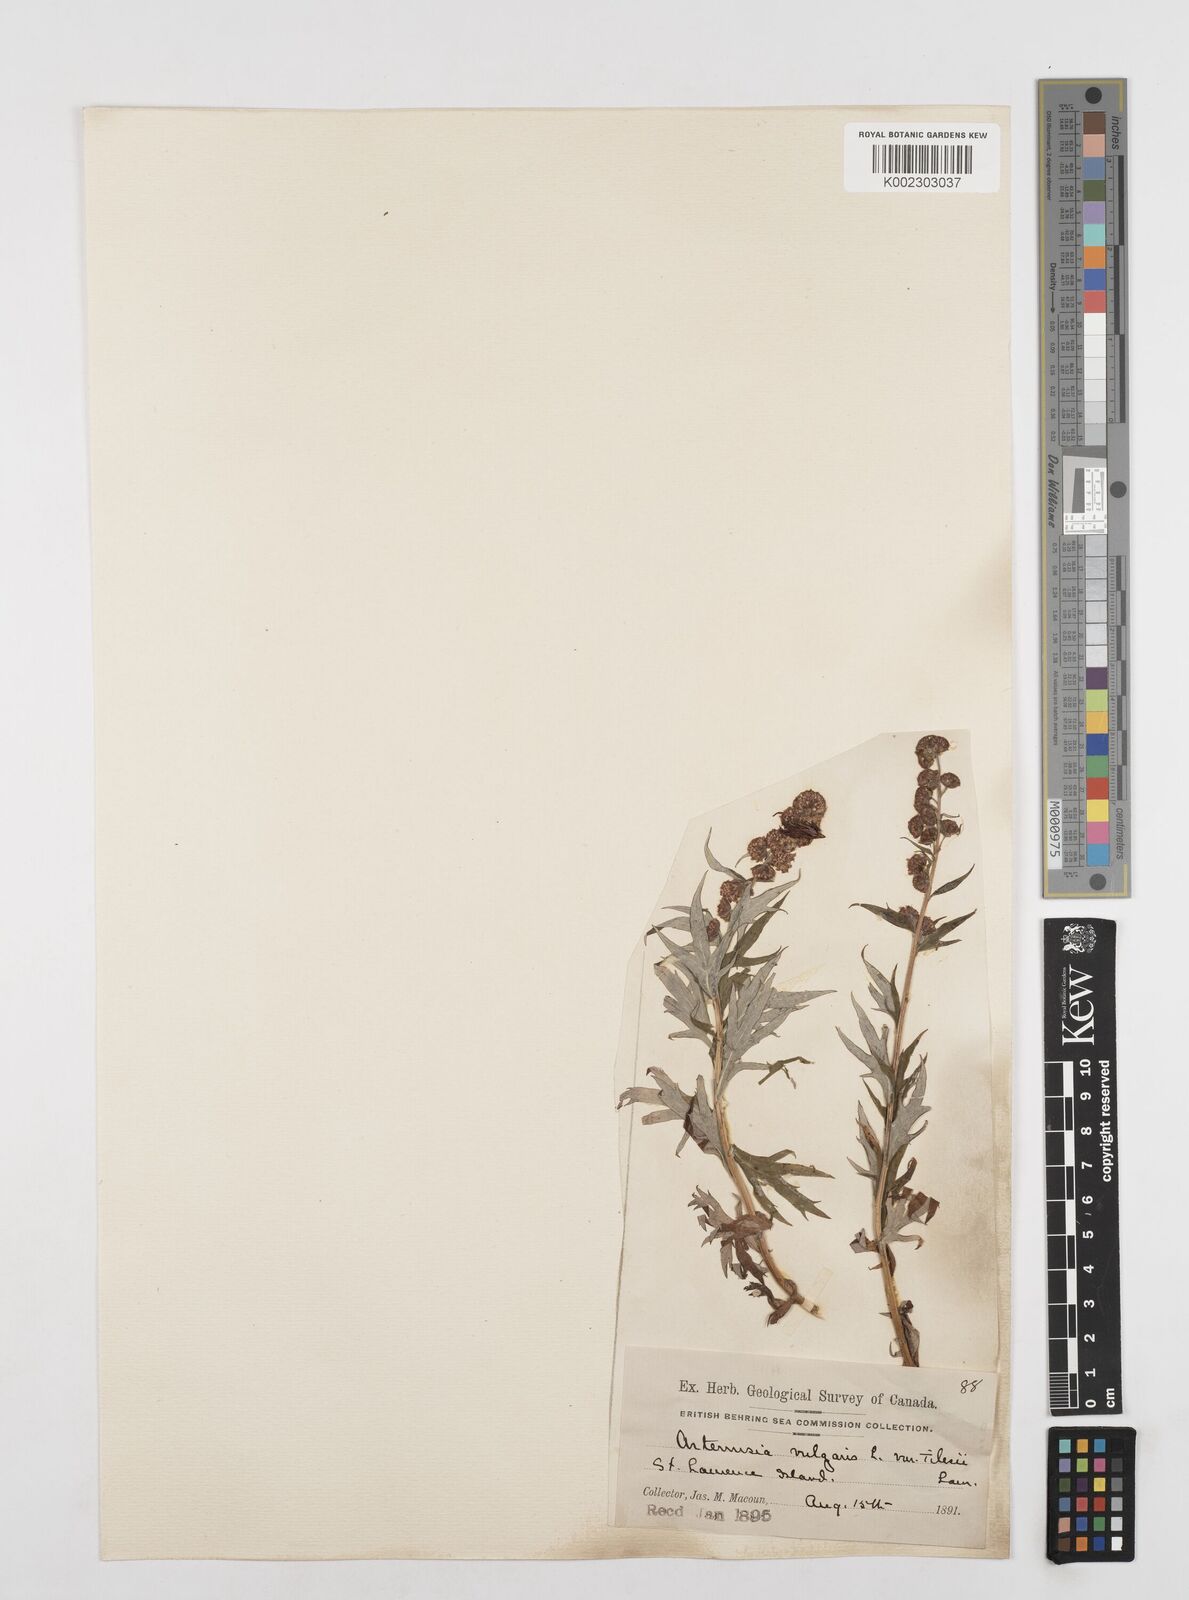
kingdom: Plantae
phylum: Tracheophyta
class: Magnoliopsida
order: Asterales
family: Asteraceae
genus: Artemisia
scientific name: Artemisia tilesii
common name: Aleutian mugwort
